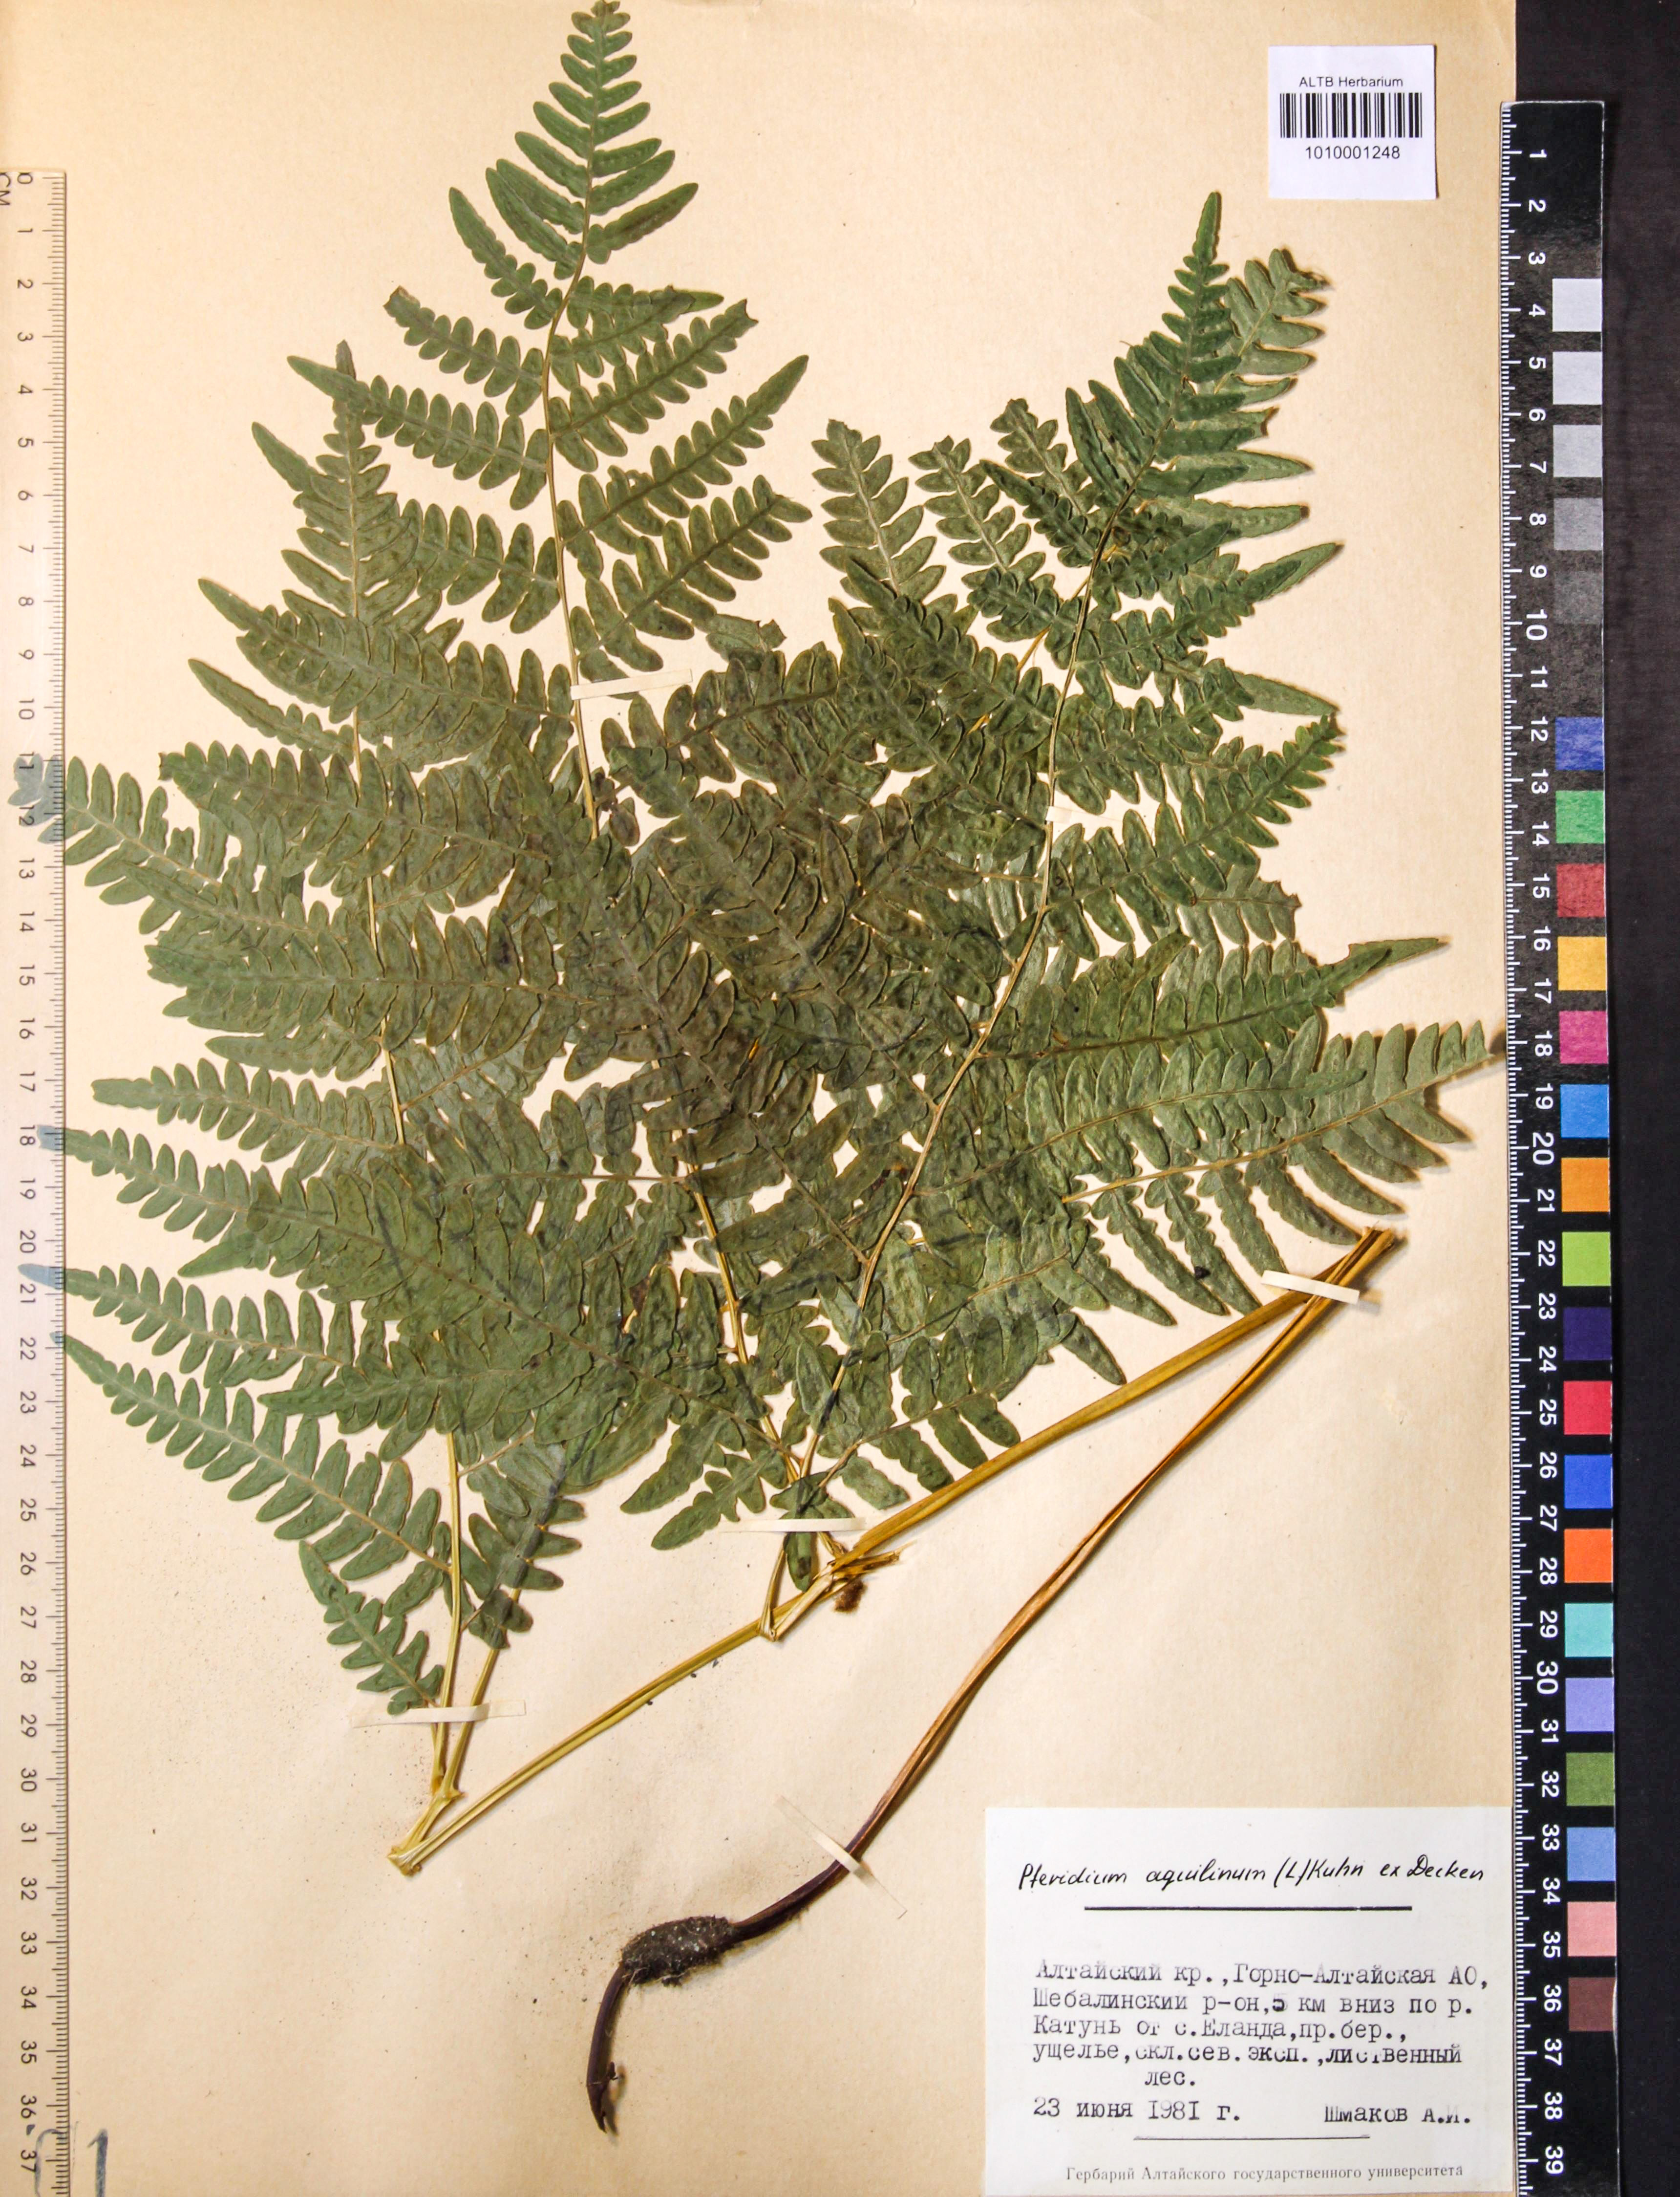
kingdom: Plantae
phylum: Tracheophyta
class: Polypodiopsida
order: Polypodiales
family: Dennstaedtiaceae
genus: Pteridium
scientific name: Pteridium aquilinum
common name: Bracken
